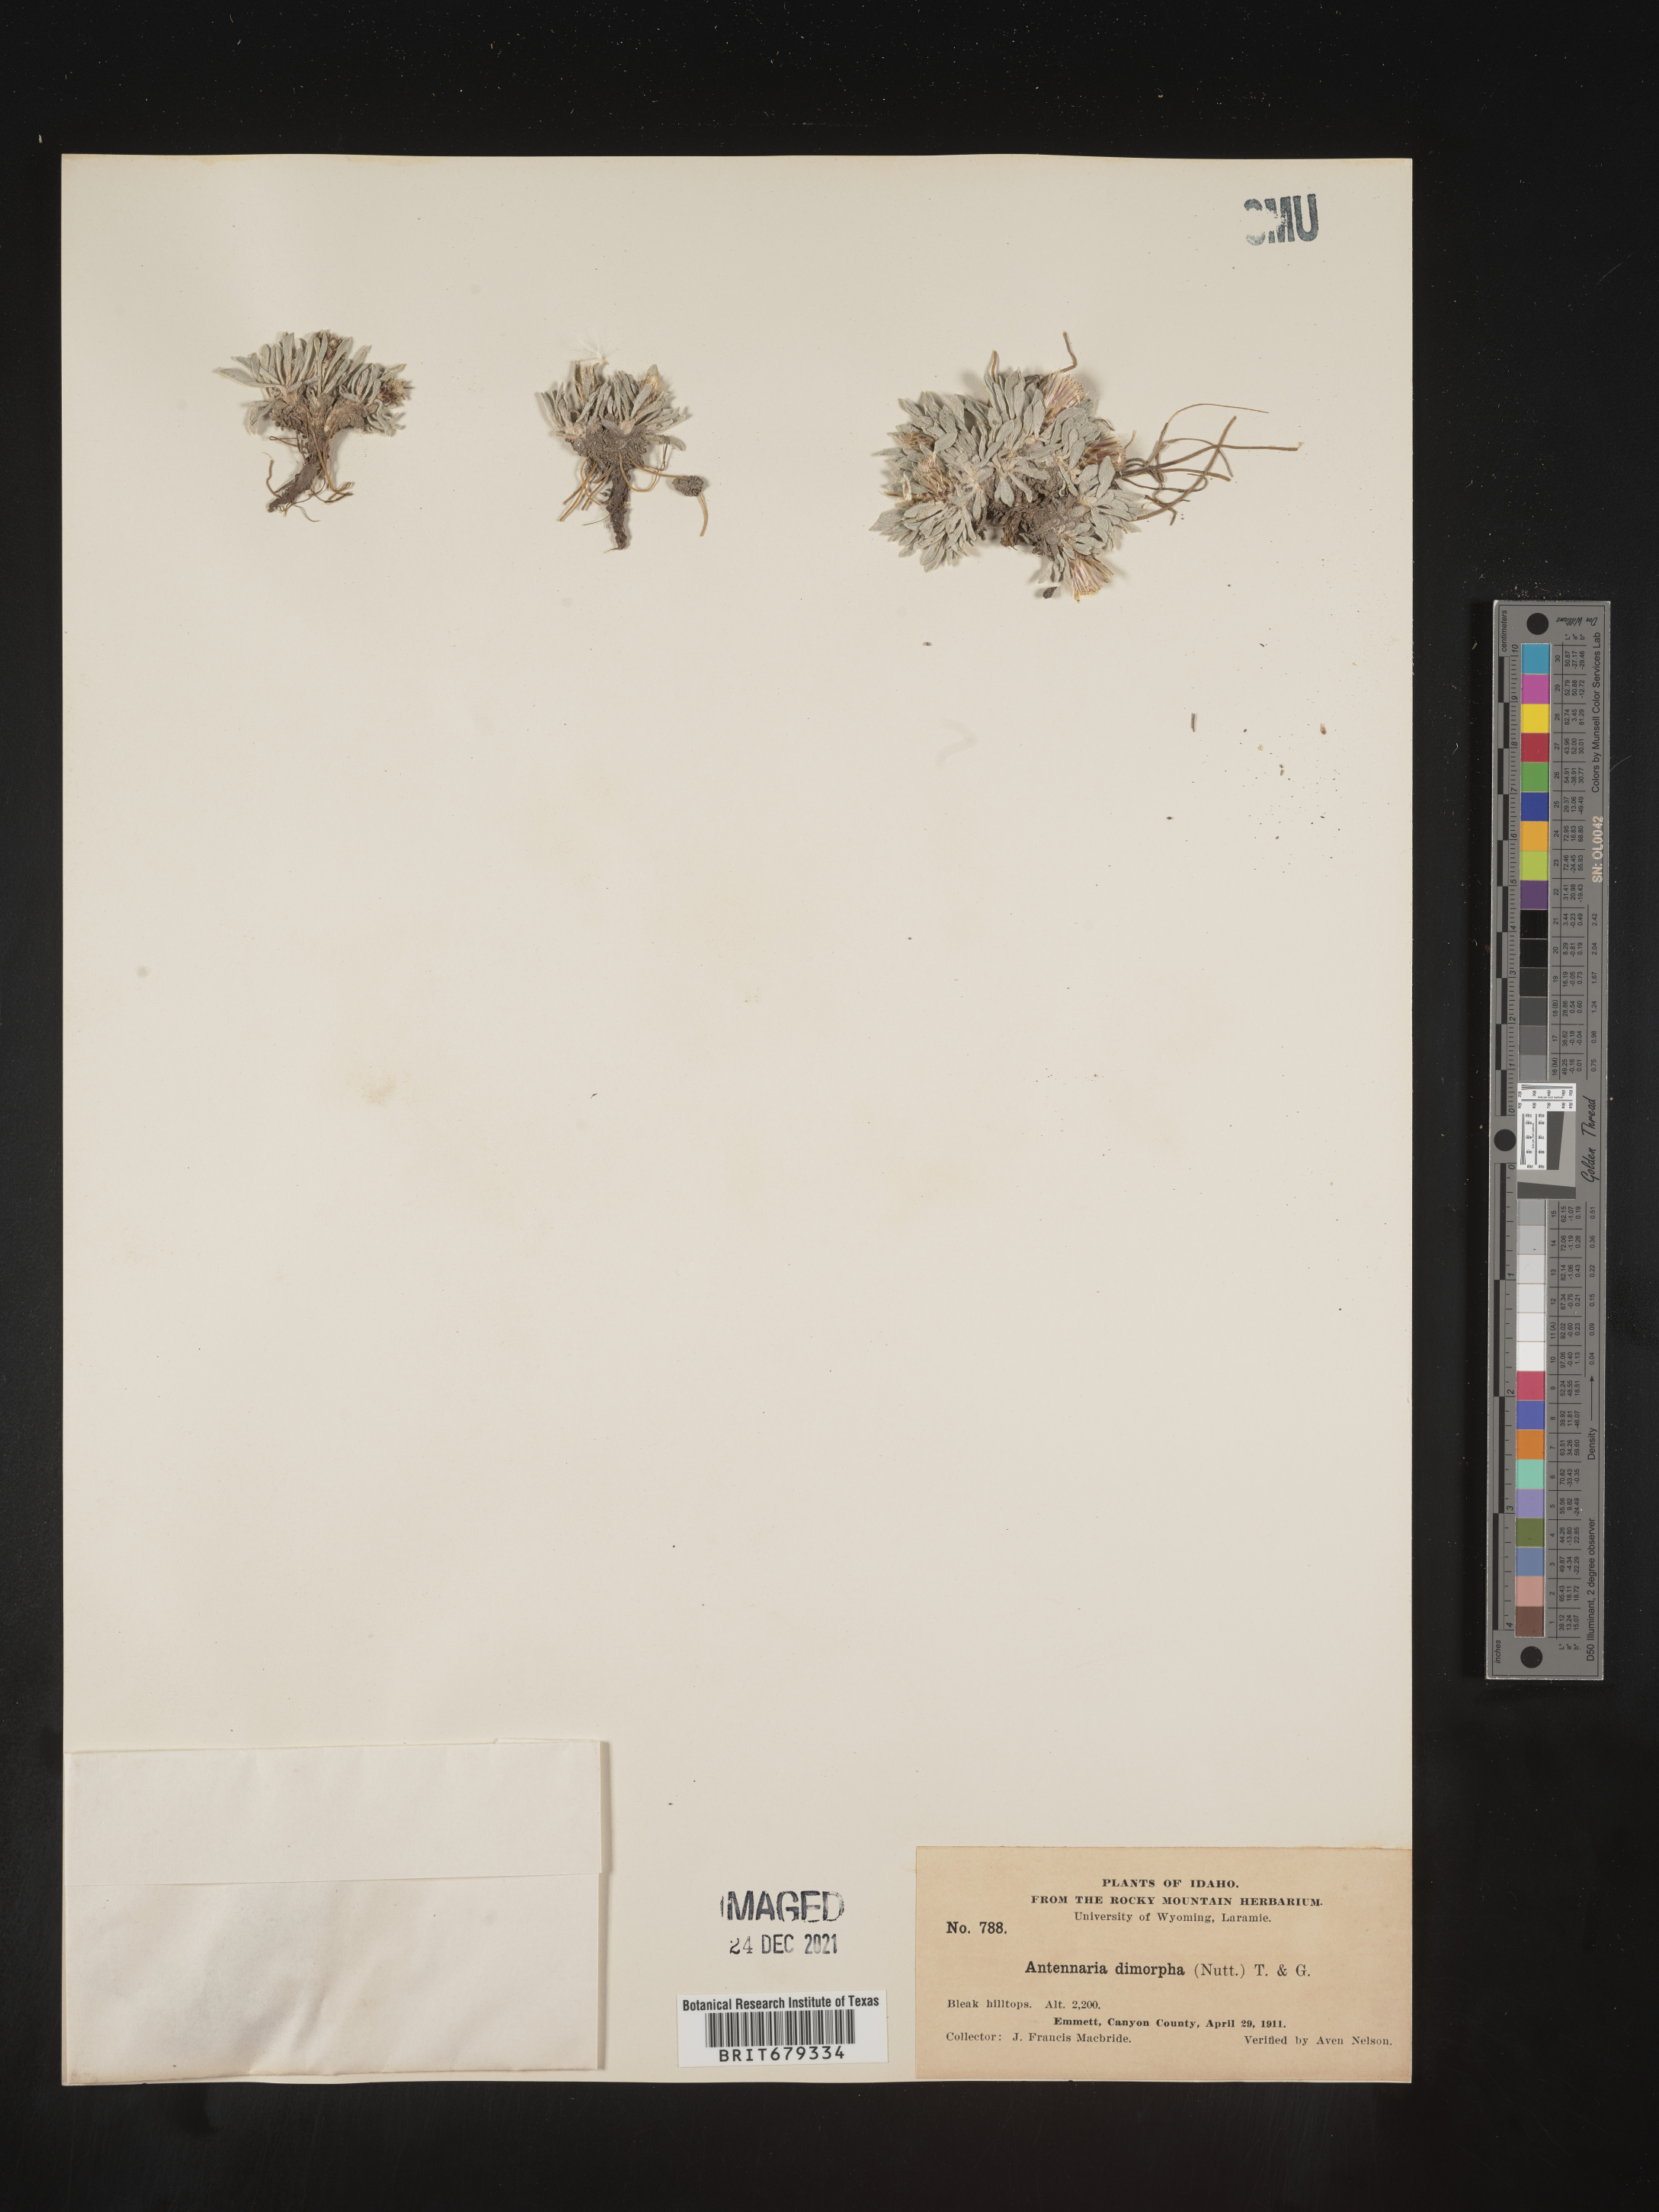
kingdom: Plantae
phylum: Tracheophyta
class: Magnoliopsida
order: Asterales
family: Asteraceae
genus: Antennaria
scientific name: Antennaria dimorpha
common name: Cushion pussytoes
